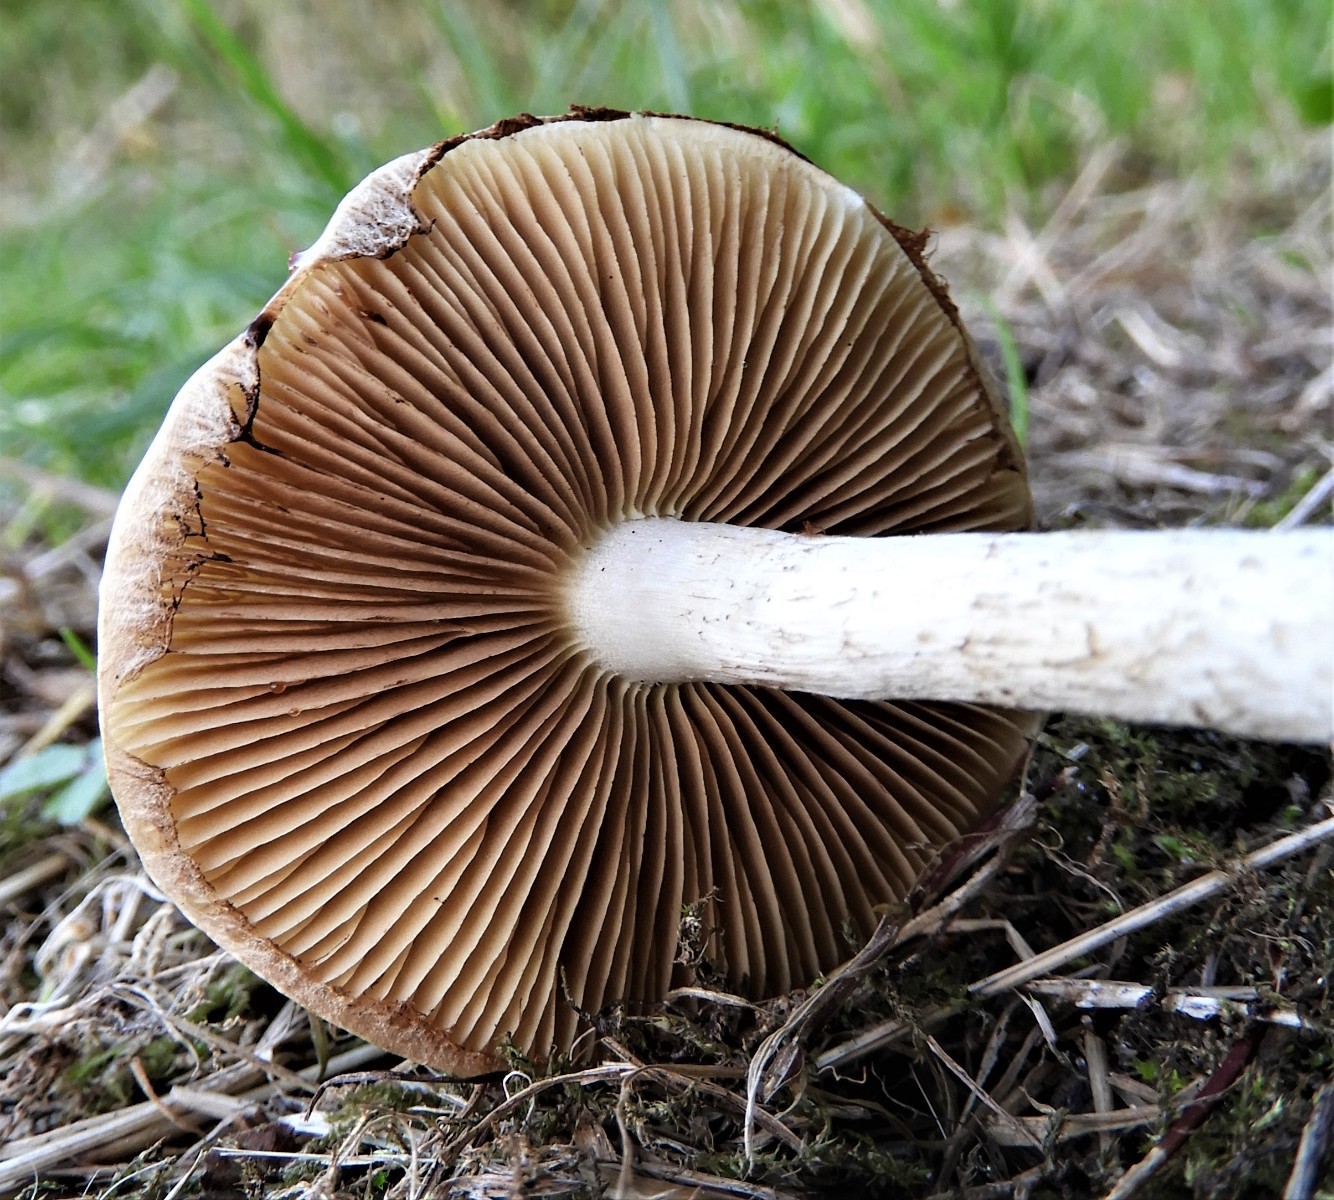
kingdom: Fungi
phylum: Basidiomycota
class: Agaricomycetes
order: Agaricales
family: Strophariaceae
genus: Pholiota
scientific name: Pholiota gummosa
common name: grøngul skælhat
